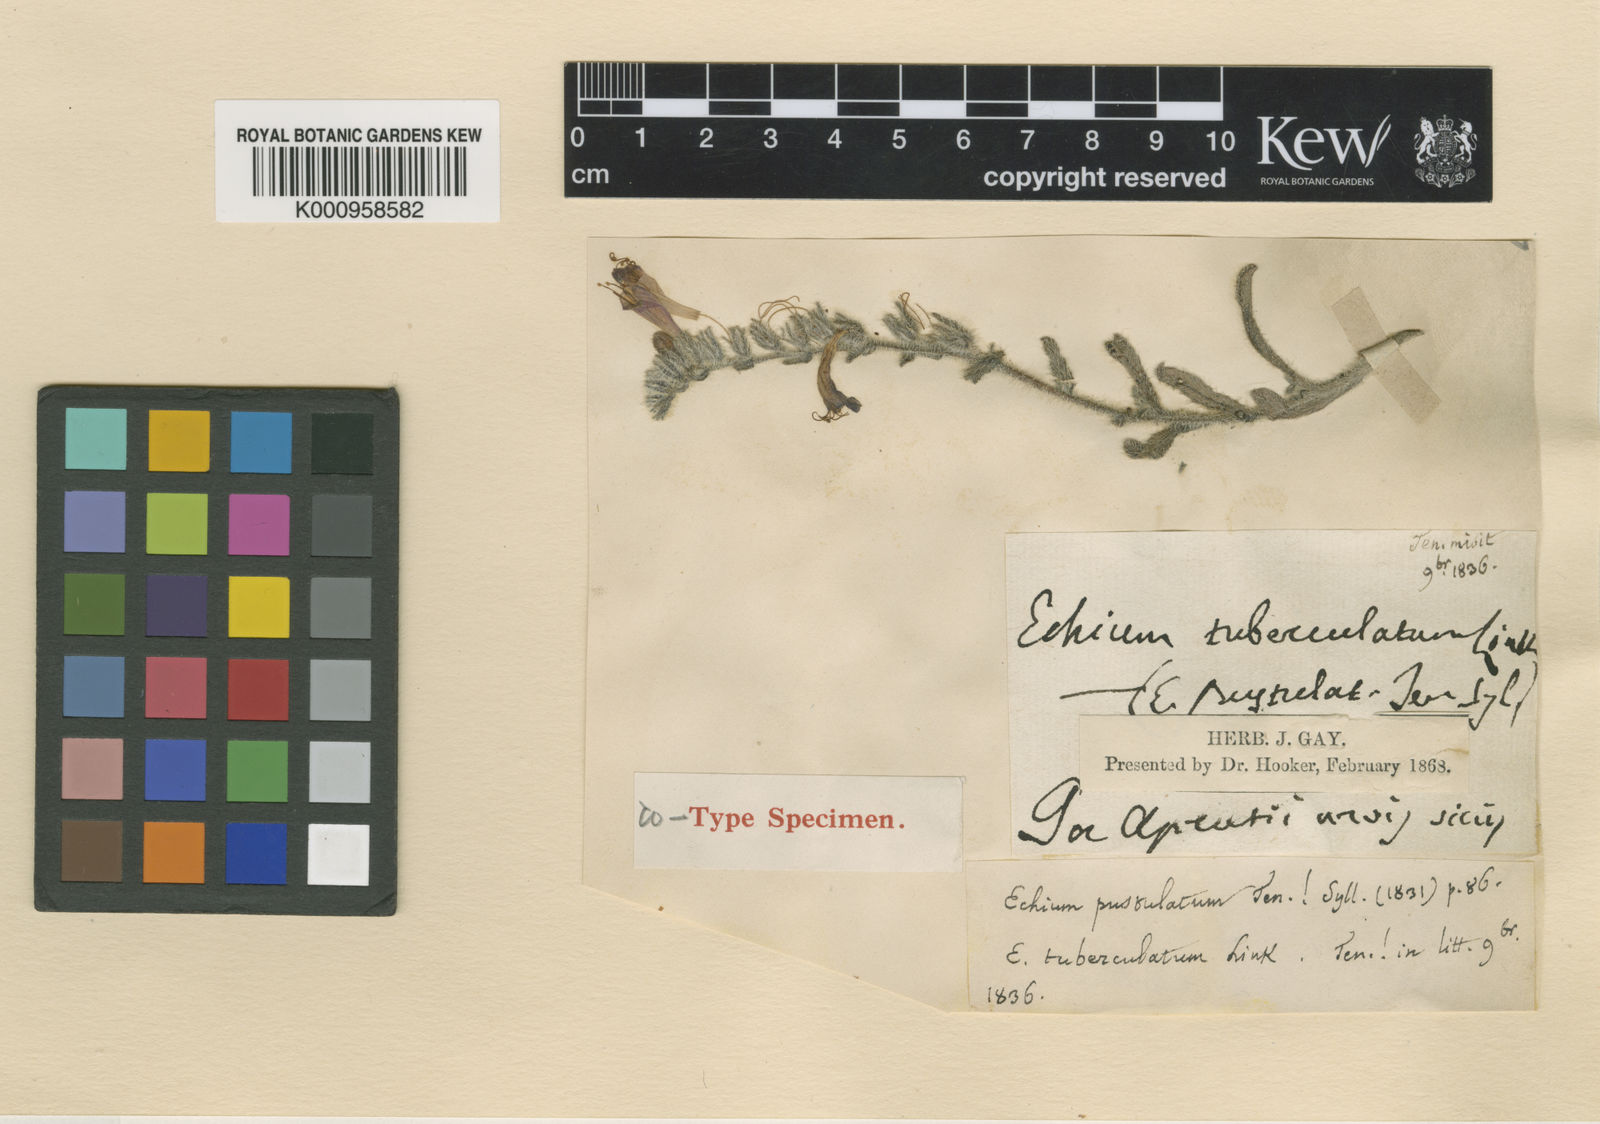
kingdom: Plantae
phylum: Tracheophyta
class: Magnoliopsida
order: Boraginales
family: Boraginaceae
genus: Echium
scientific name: Echium flavum
